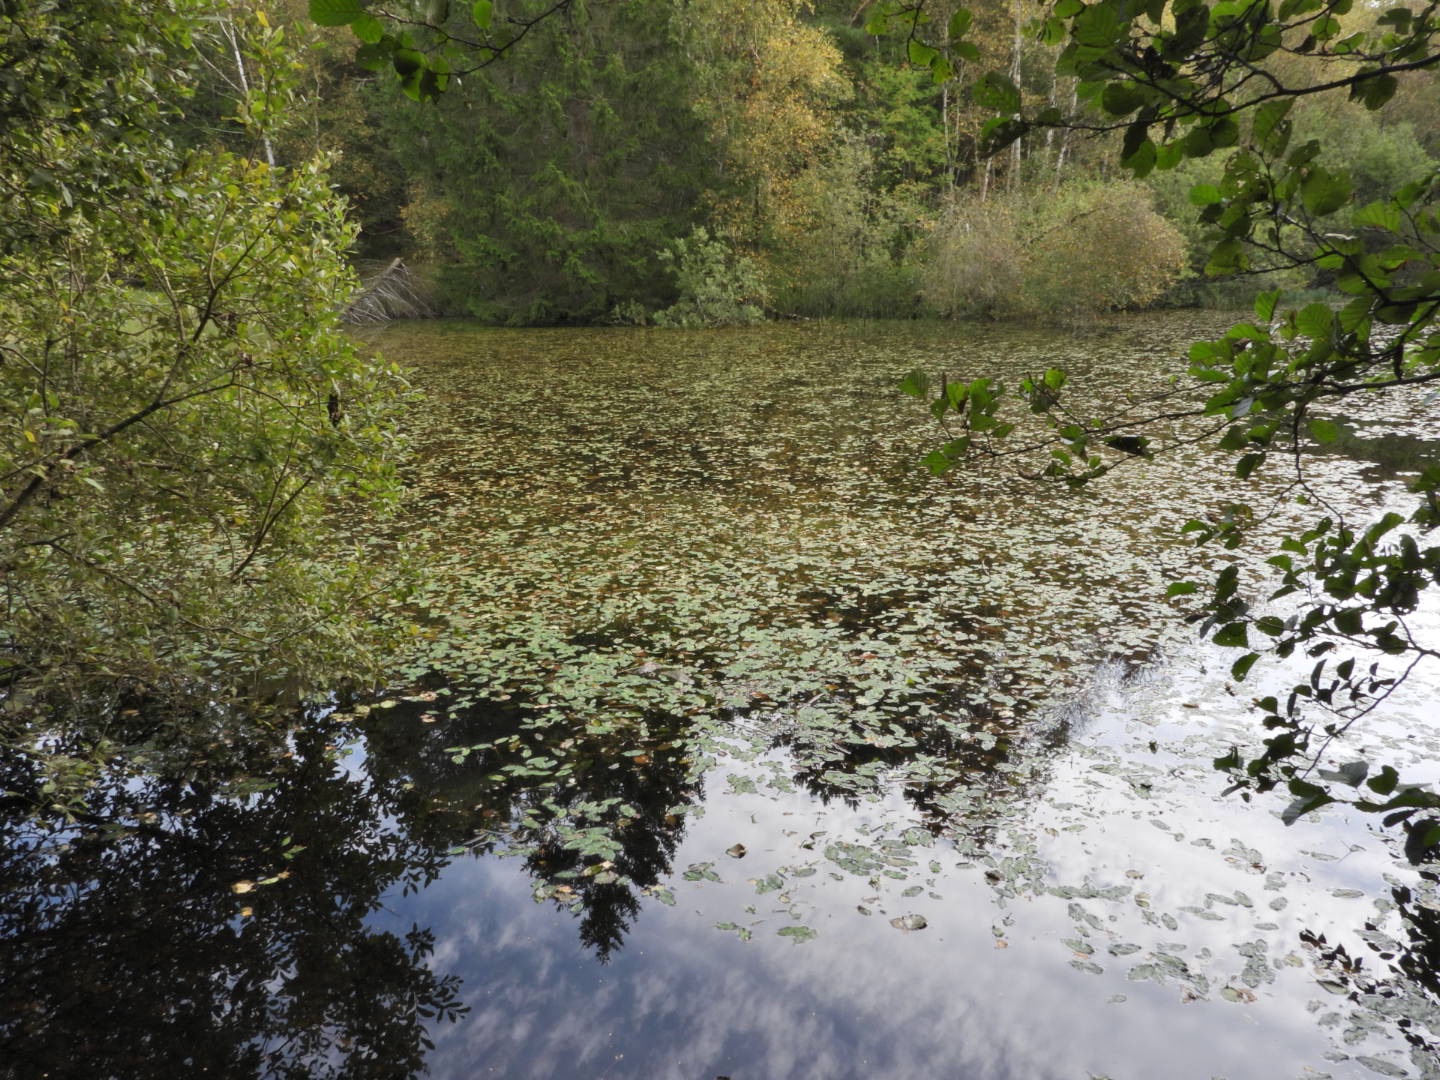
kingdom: Plantae
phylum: Tracheophyta
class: Liliopsida
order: Alismatales
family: Potamogetonaceae
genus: Potamogeton
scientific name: Potamogeton natans
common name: Svømmende vandaks
